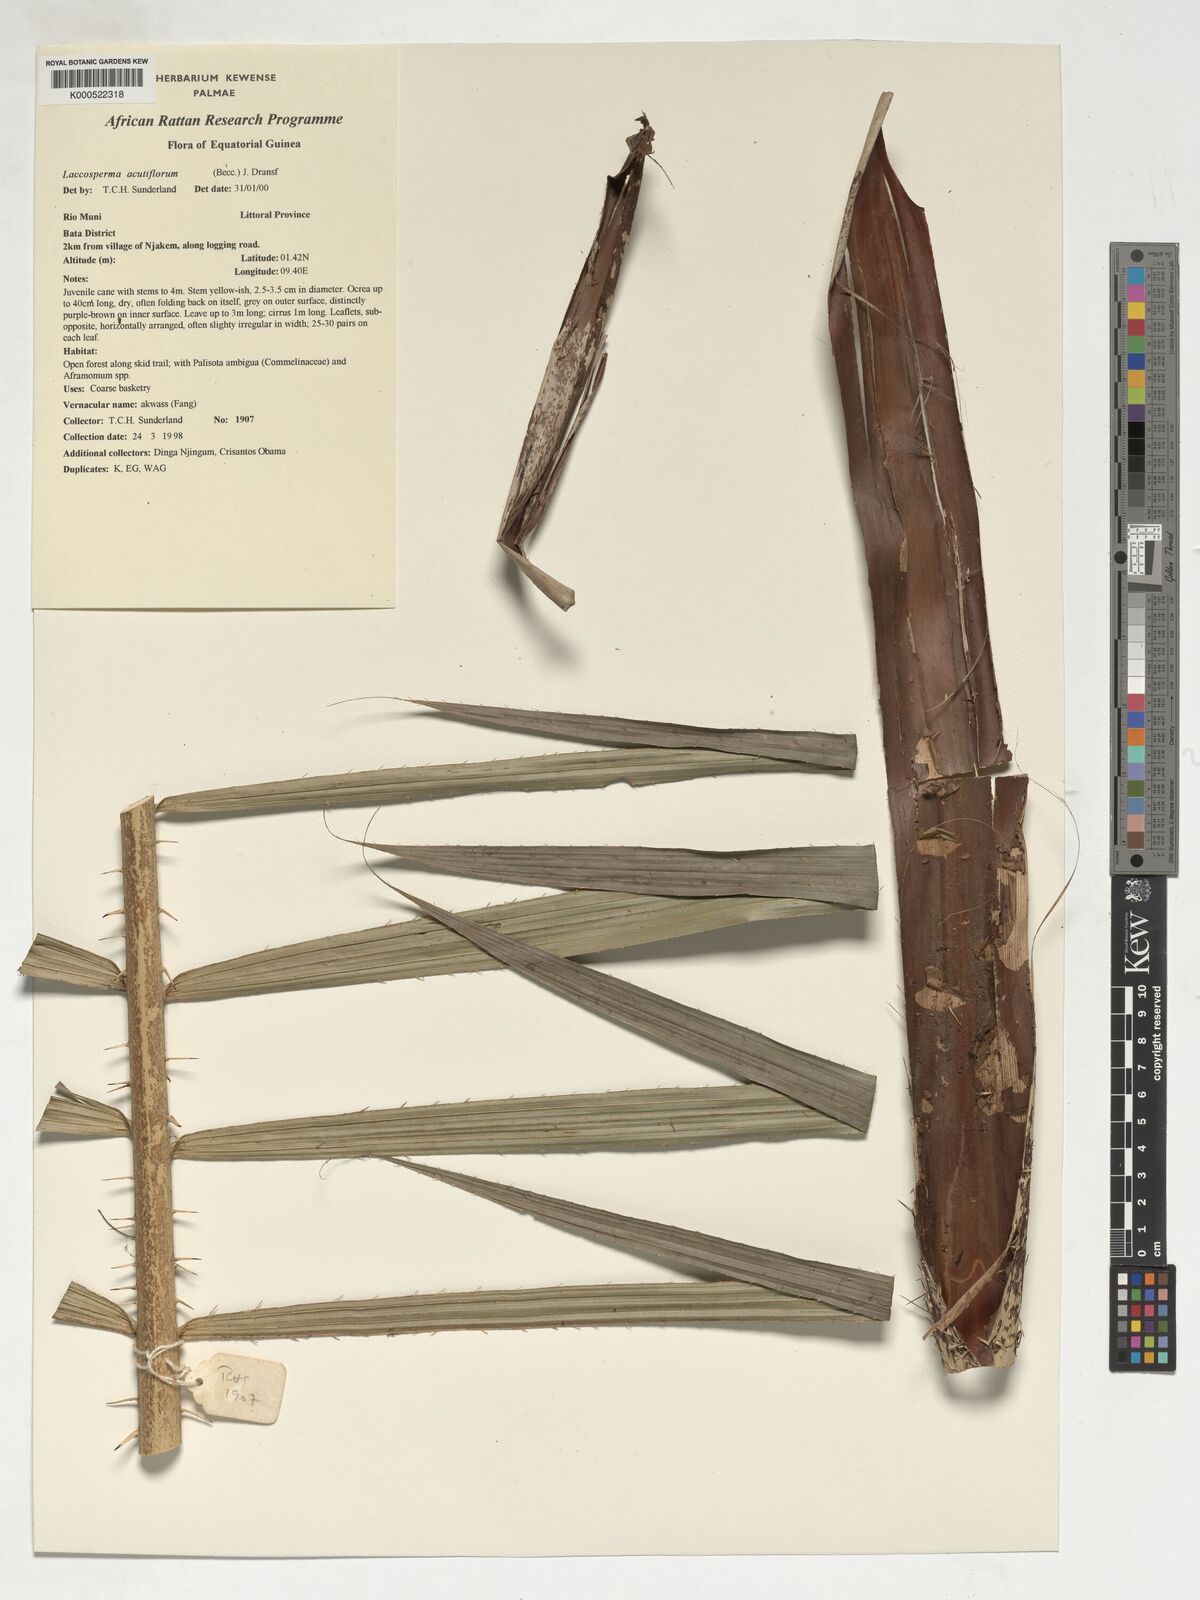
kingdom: Plantae
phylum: Tracheophyta
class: Liliopsida
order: Arecales
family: Arecaceae
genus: Laccosperma
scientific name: Laccosperma acutiflorum
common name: Rattan
